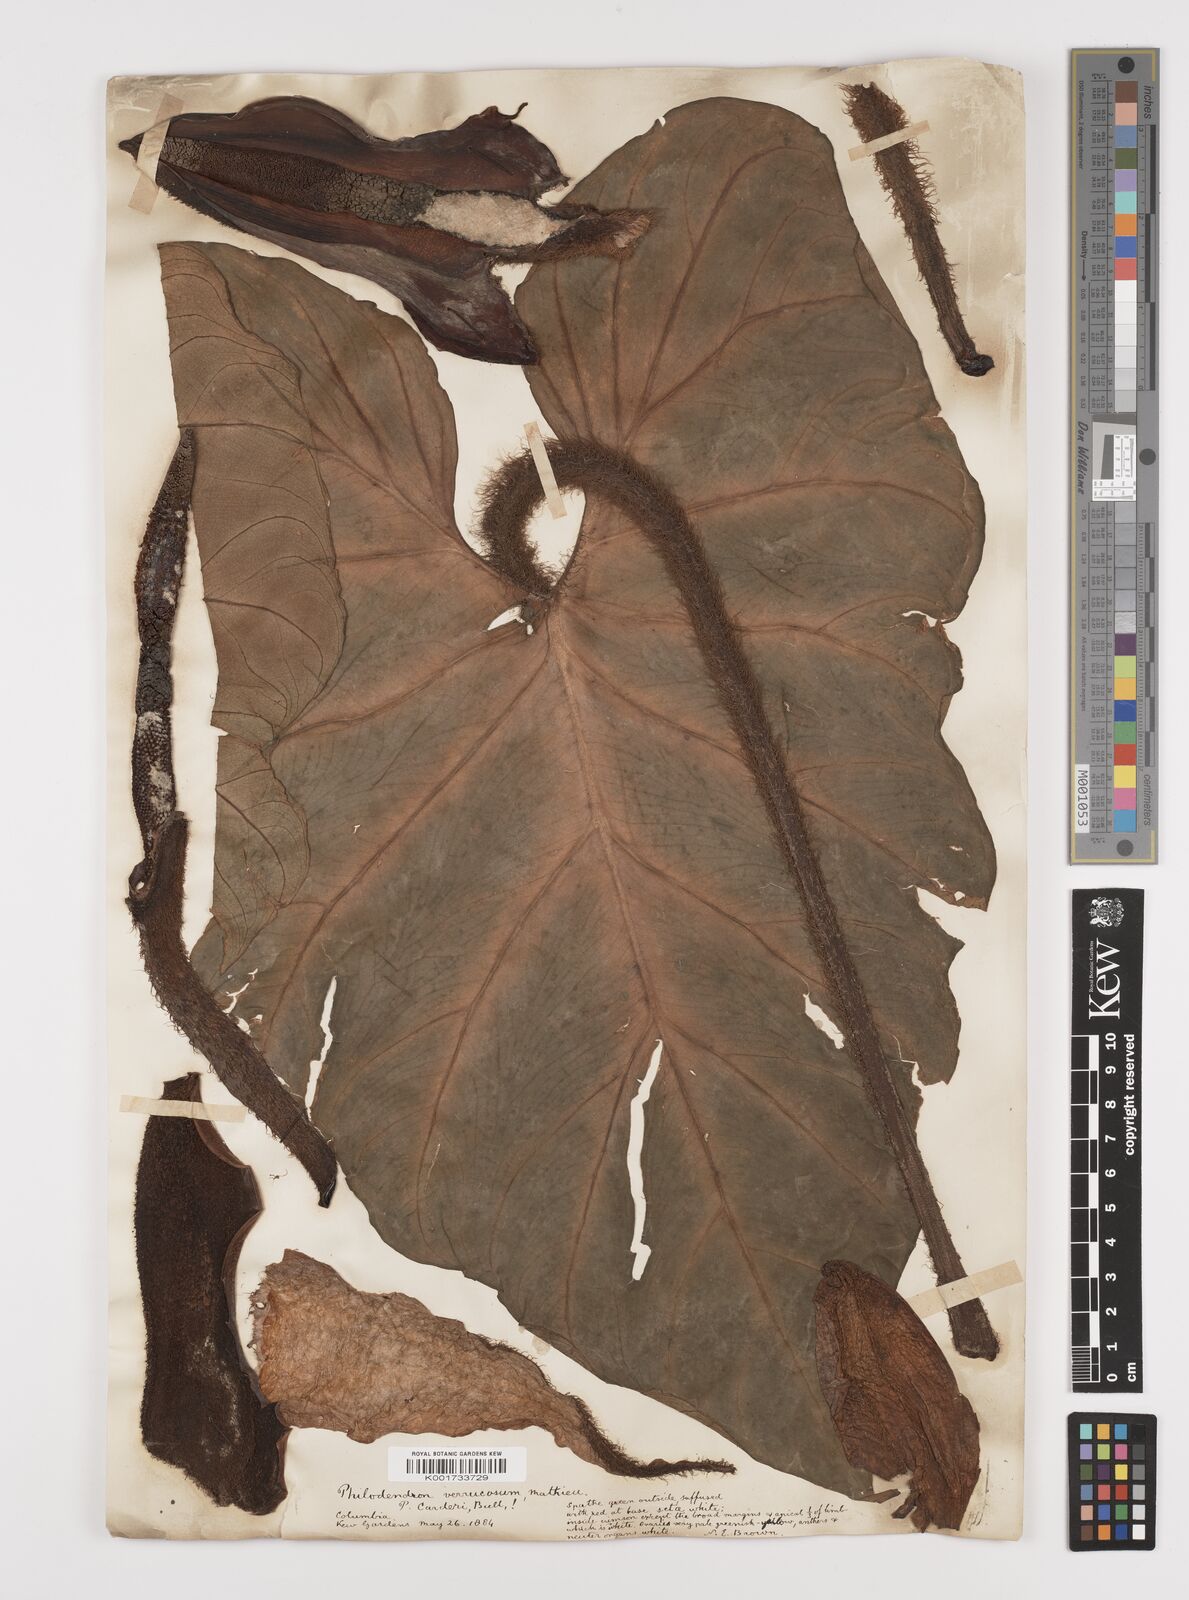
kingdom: Plantae
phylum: Tracheophyta
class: Liliopsida
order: Alismatales
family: Araceae
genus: Philodendron
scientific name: Philodendron verrucosum
